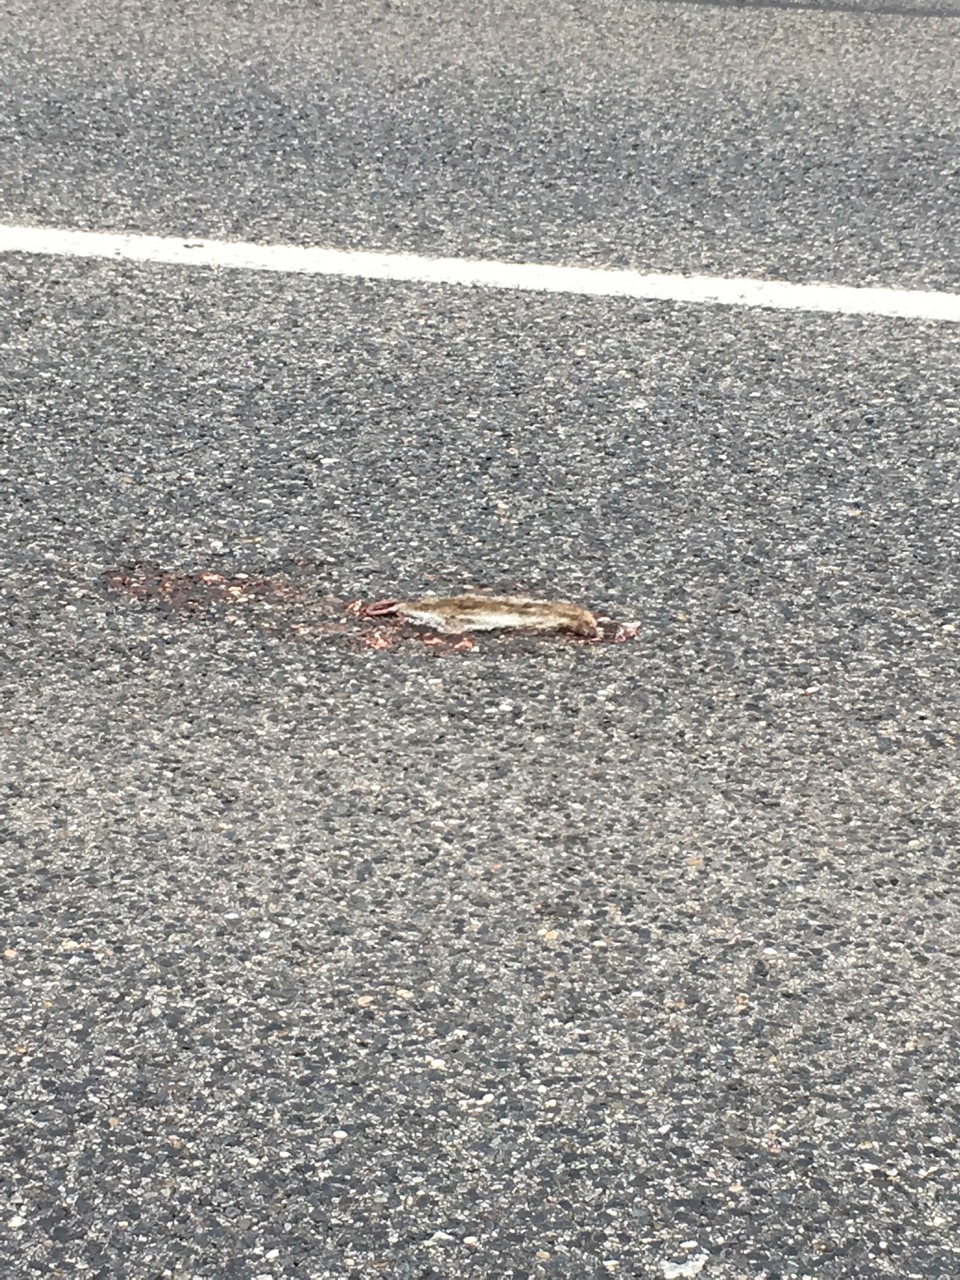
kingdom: Animalia
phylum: Chordata
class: Mammalia
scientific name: Mammalia
